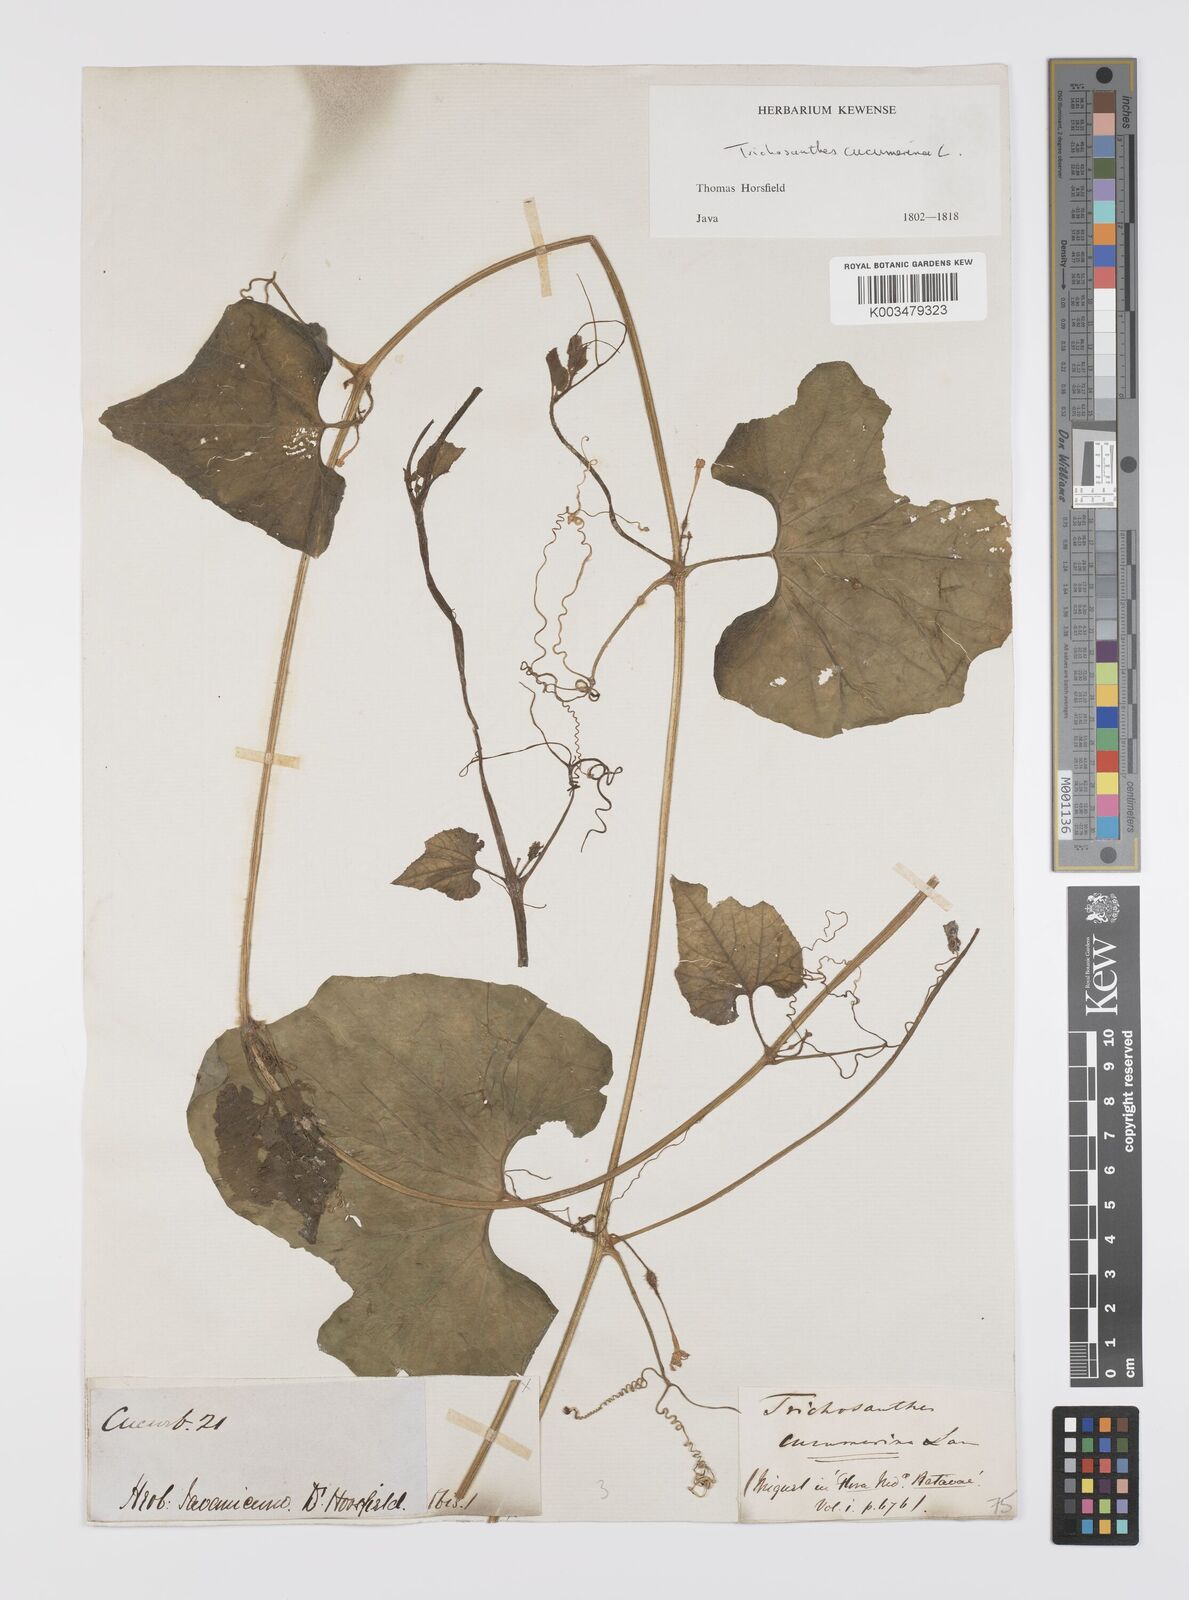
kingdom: Plantae
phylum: Tracheophyta
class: Magnoliopsida
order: Cucurbitales
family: Cucurbitaceae
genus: Trichosanthes
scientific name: Trichosanthes cucumerina
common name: Snakegourd
